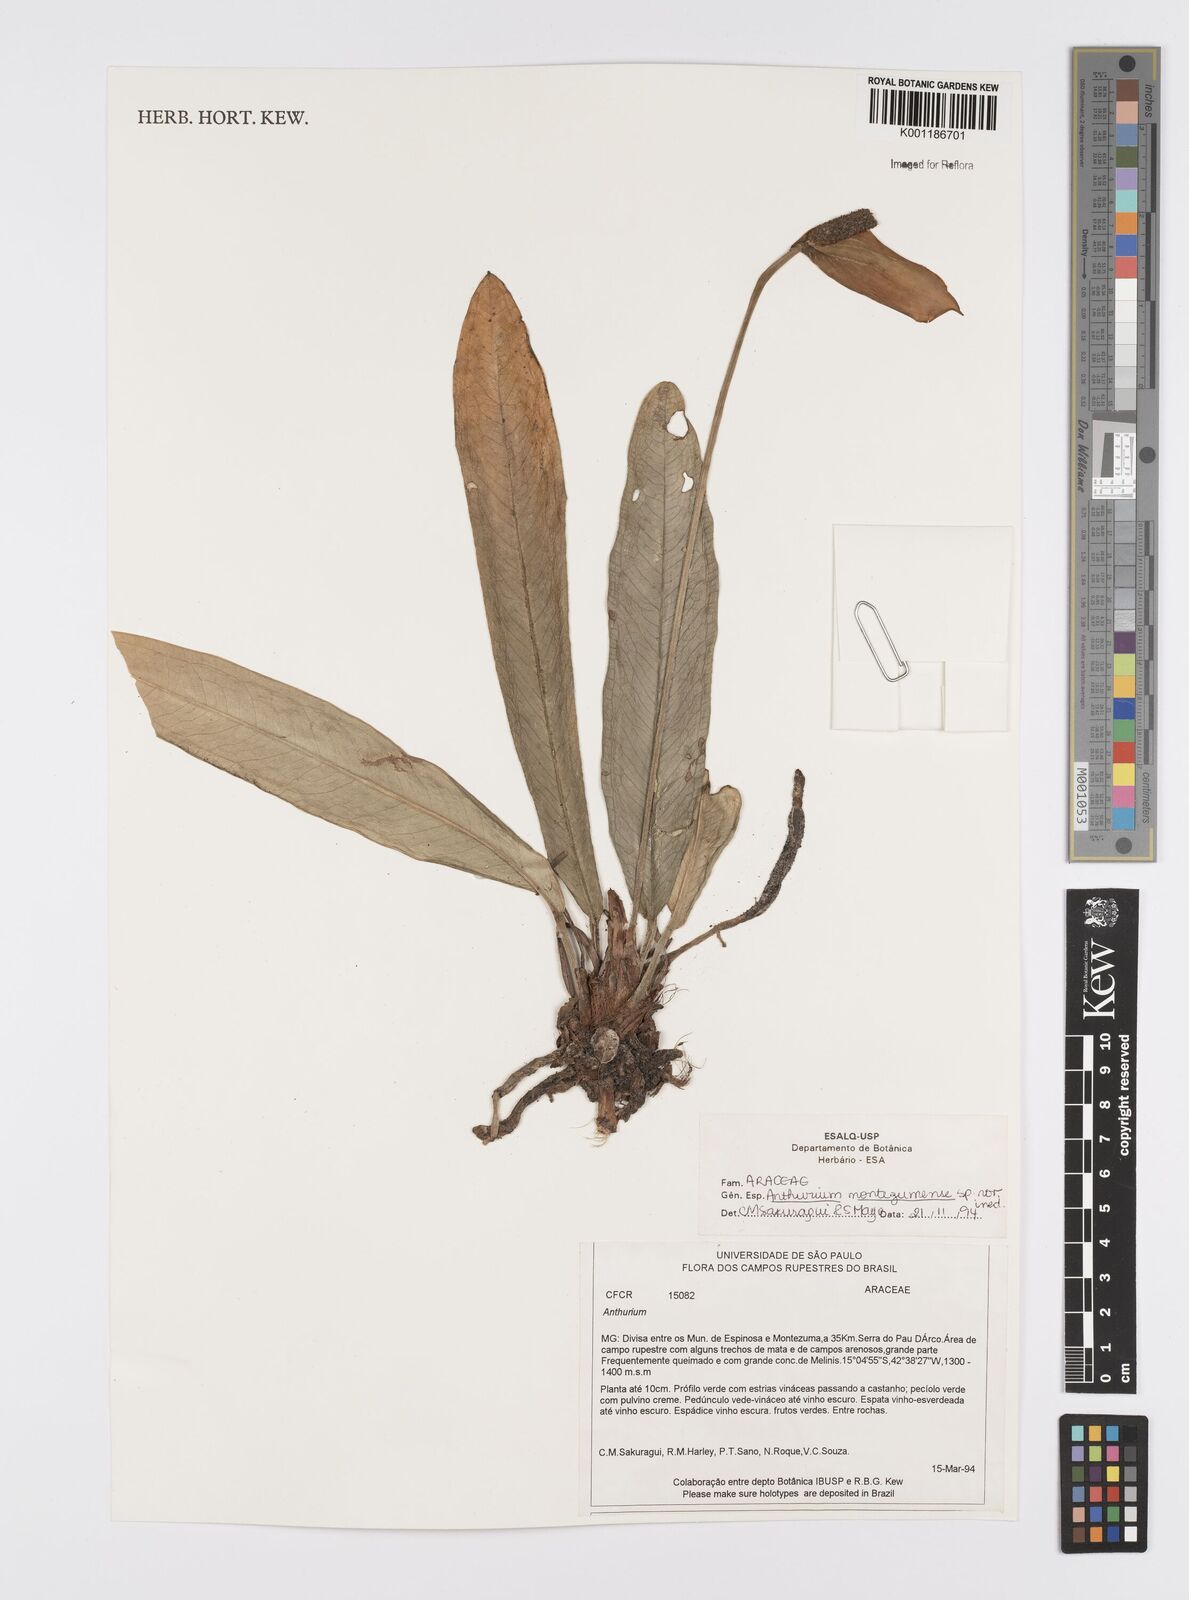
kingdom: Plantae
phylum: Tracheophyta
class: Liliopsida
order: Alismatales
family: Araceae
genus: Anthurium
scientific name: Anthurium
